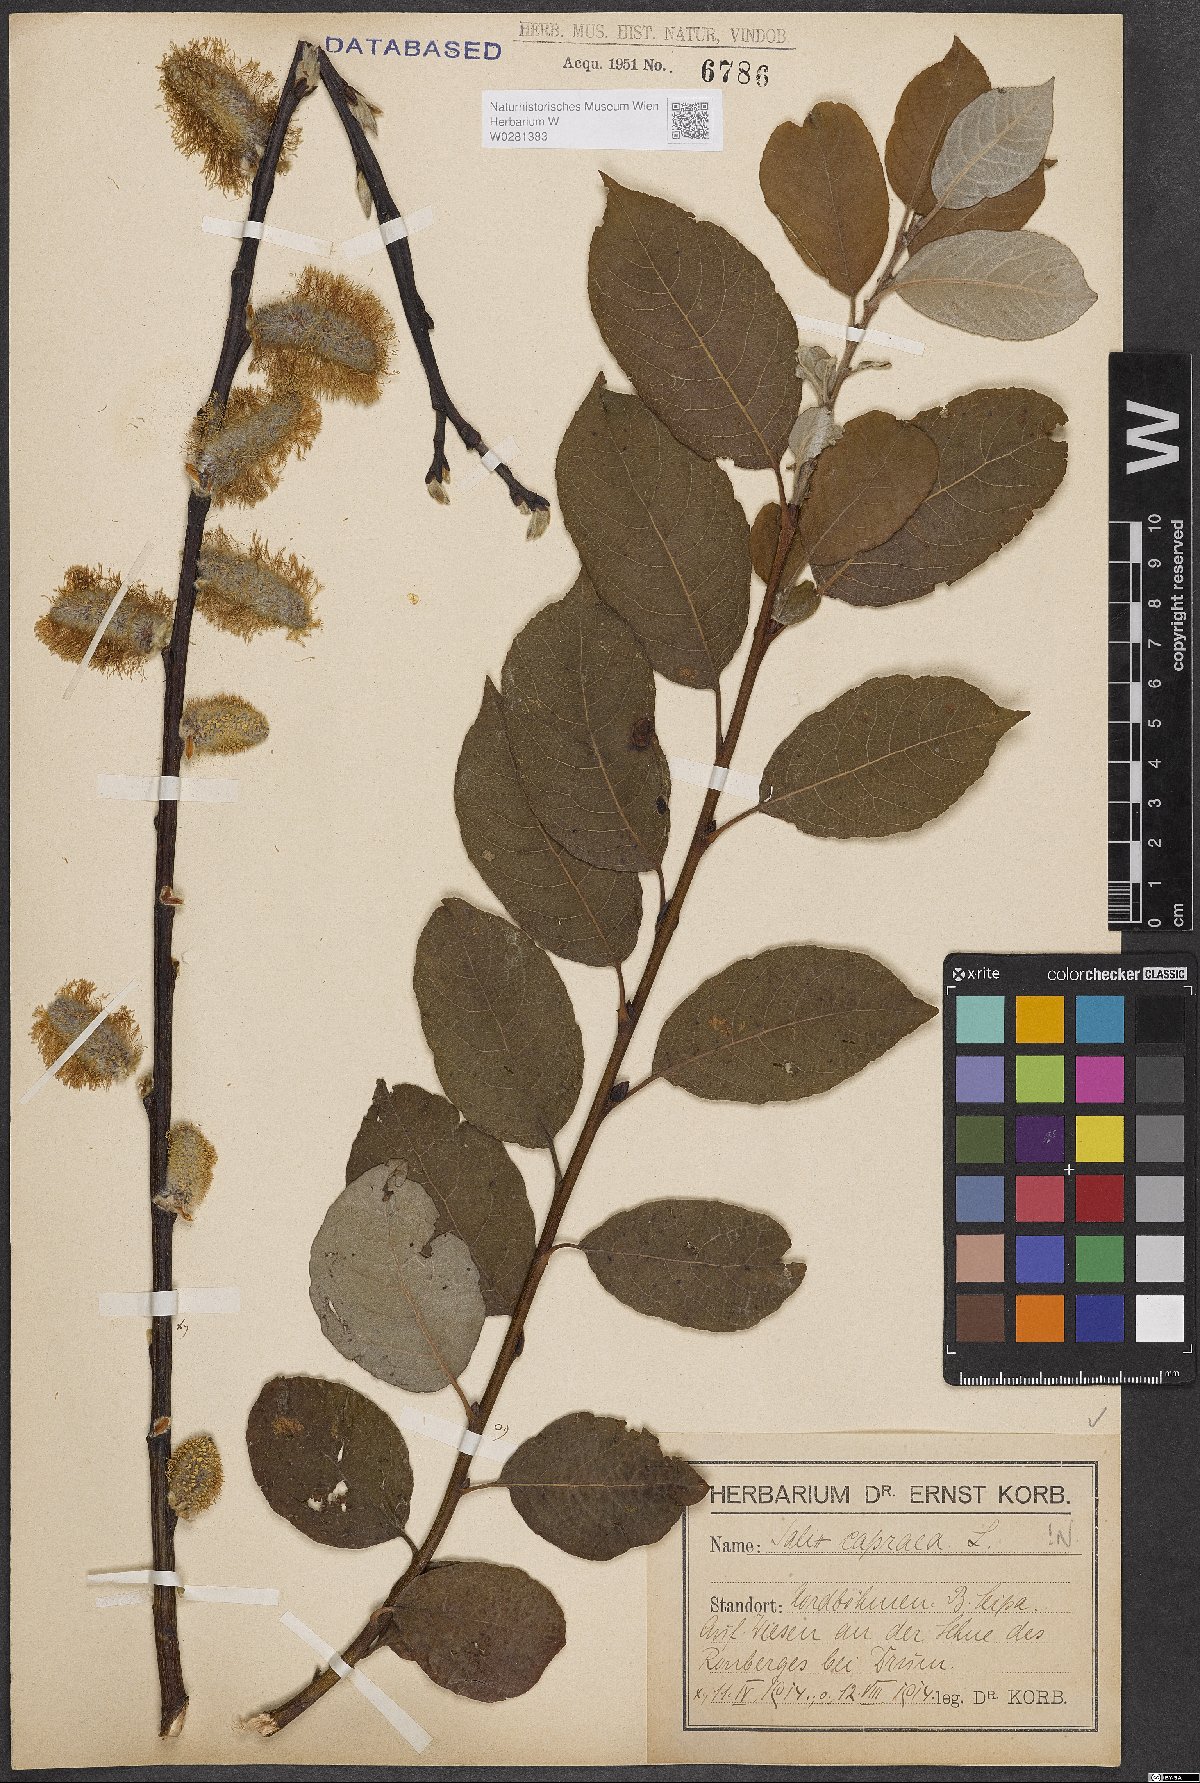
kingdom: Plantae
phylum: Tracheophyta
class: Magnoliopsida
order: Malpighiales
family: Salicaceae
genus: Salix
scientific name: Salix caprea
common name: Goat willow
